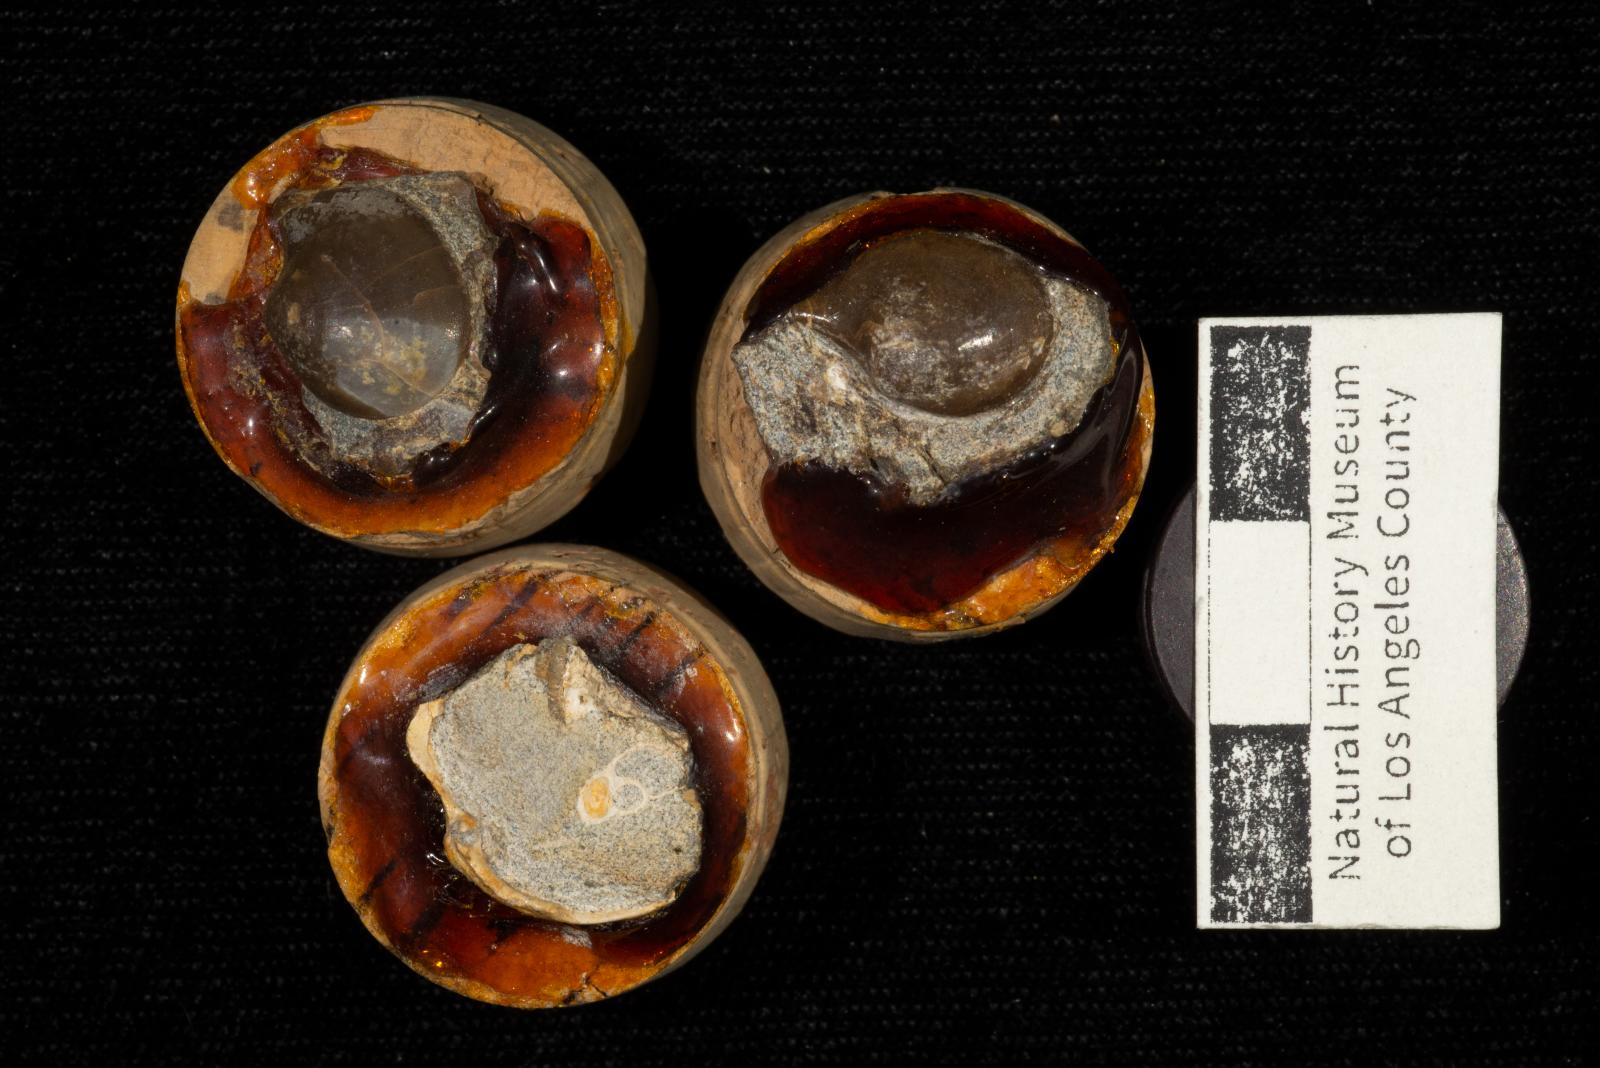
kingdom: Animalia
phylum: Mollusca
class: Bivalvia
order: Cardiida
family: Tancrediidae
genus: Meekia
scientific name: Meekia louella
